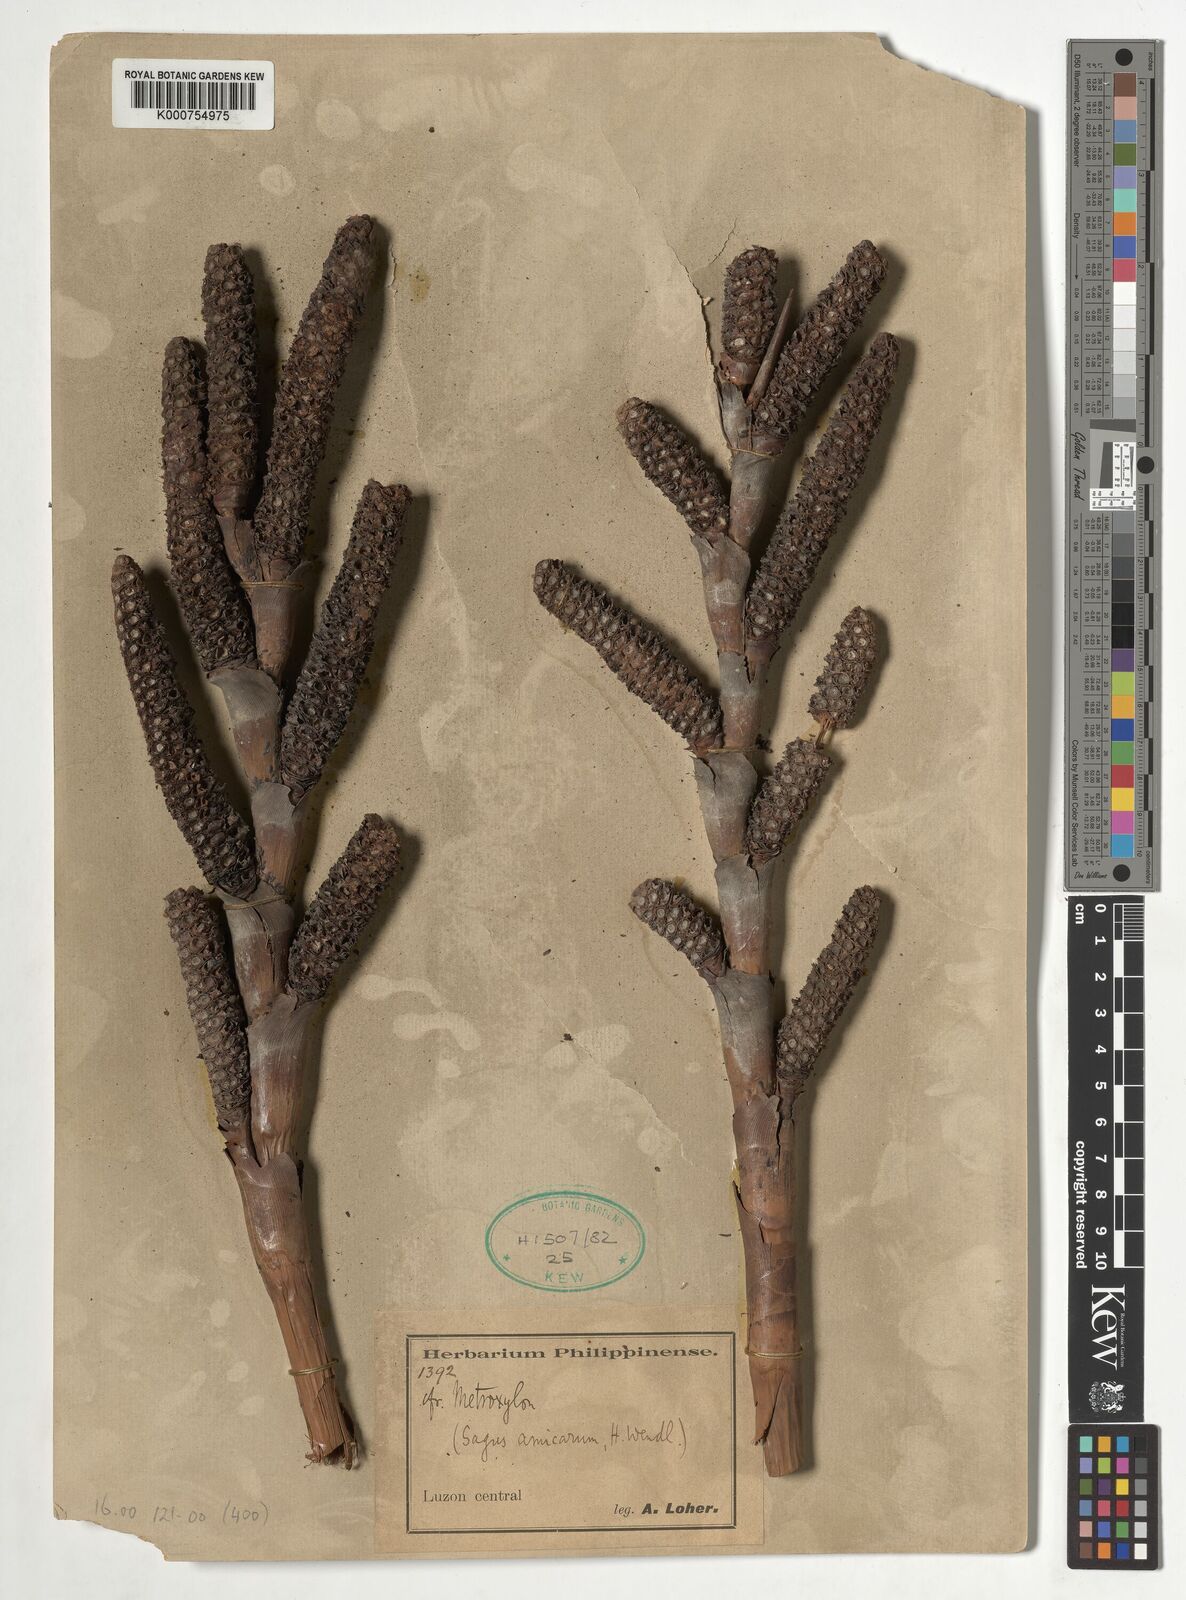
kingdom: Plantae
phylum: Tracheophyta
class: Liliopsida
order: Arecales
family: Arecaceae
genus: Metroxylon
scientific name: Metroxylon
